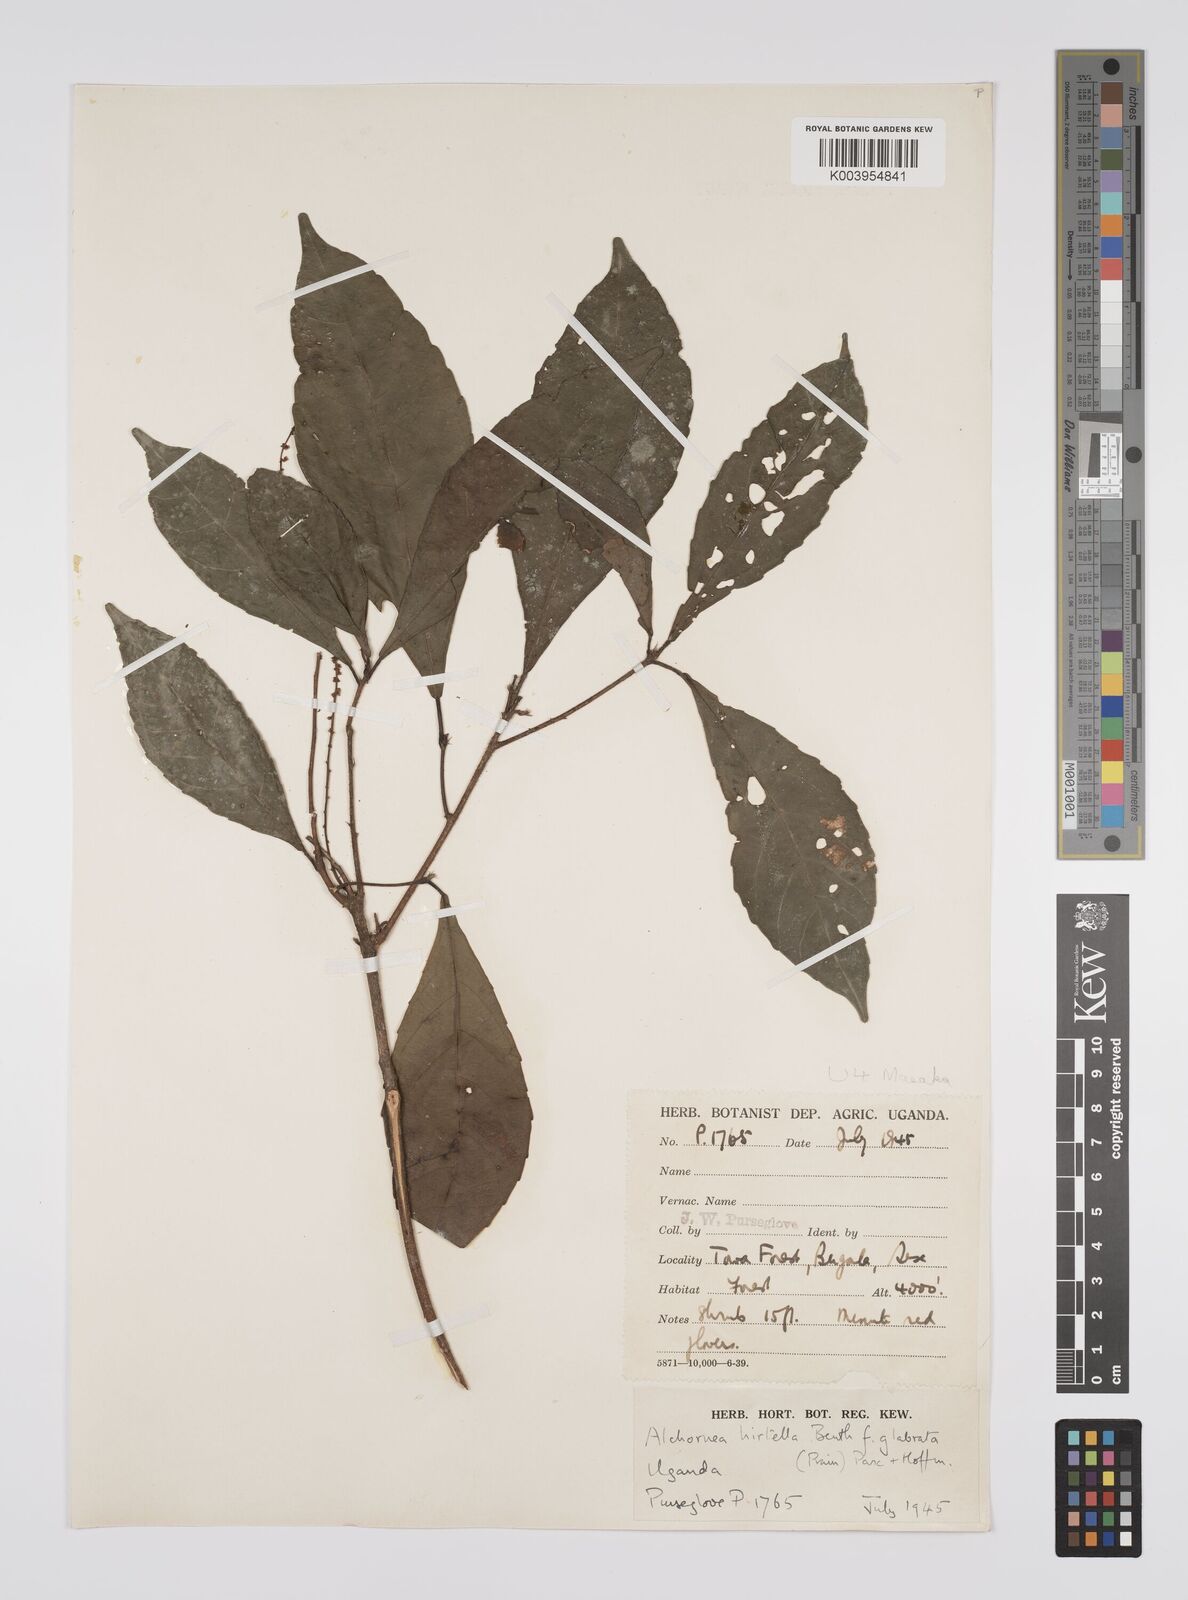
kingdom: Plantae
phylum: Tracheophyta
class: Magnoliopsida
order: Malpighiales
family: Euphorbiaceae
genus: Alchornea
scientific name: Alchornea hirtella
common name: Forest bead-string
